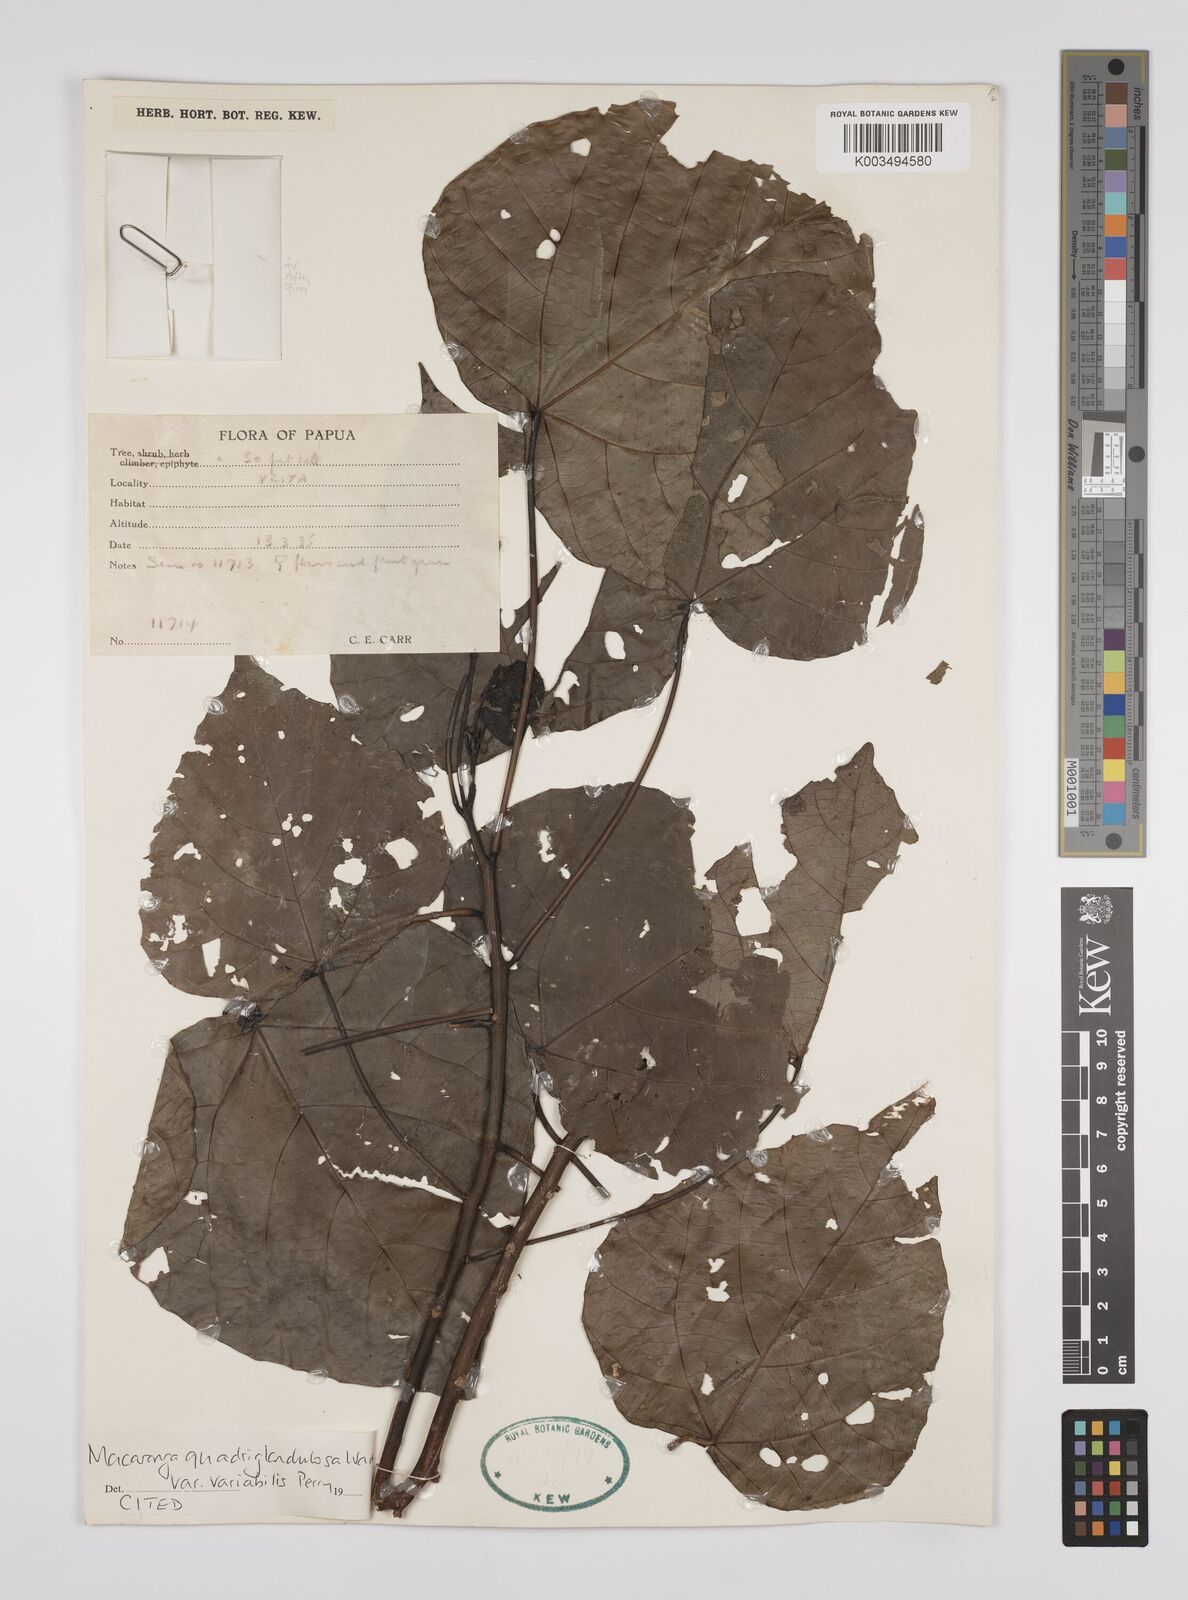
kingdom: Plantae
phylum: Tracheophyta
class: Magnoliopsida
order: Malpighiales
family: Euphorbiaceae
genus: Macaranga
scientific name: Macaranga quadriglandulosa
